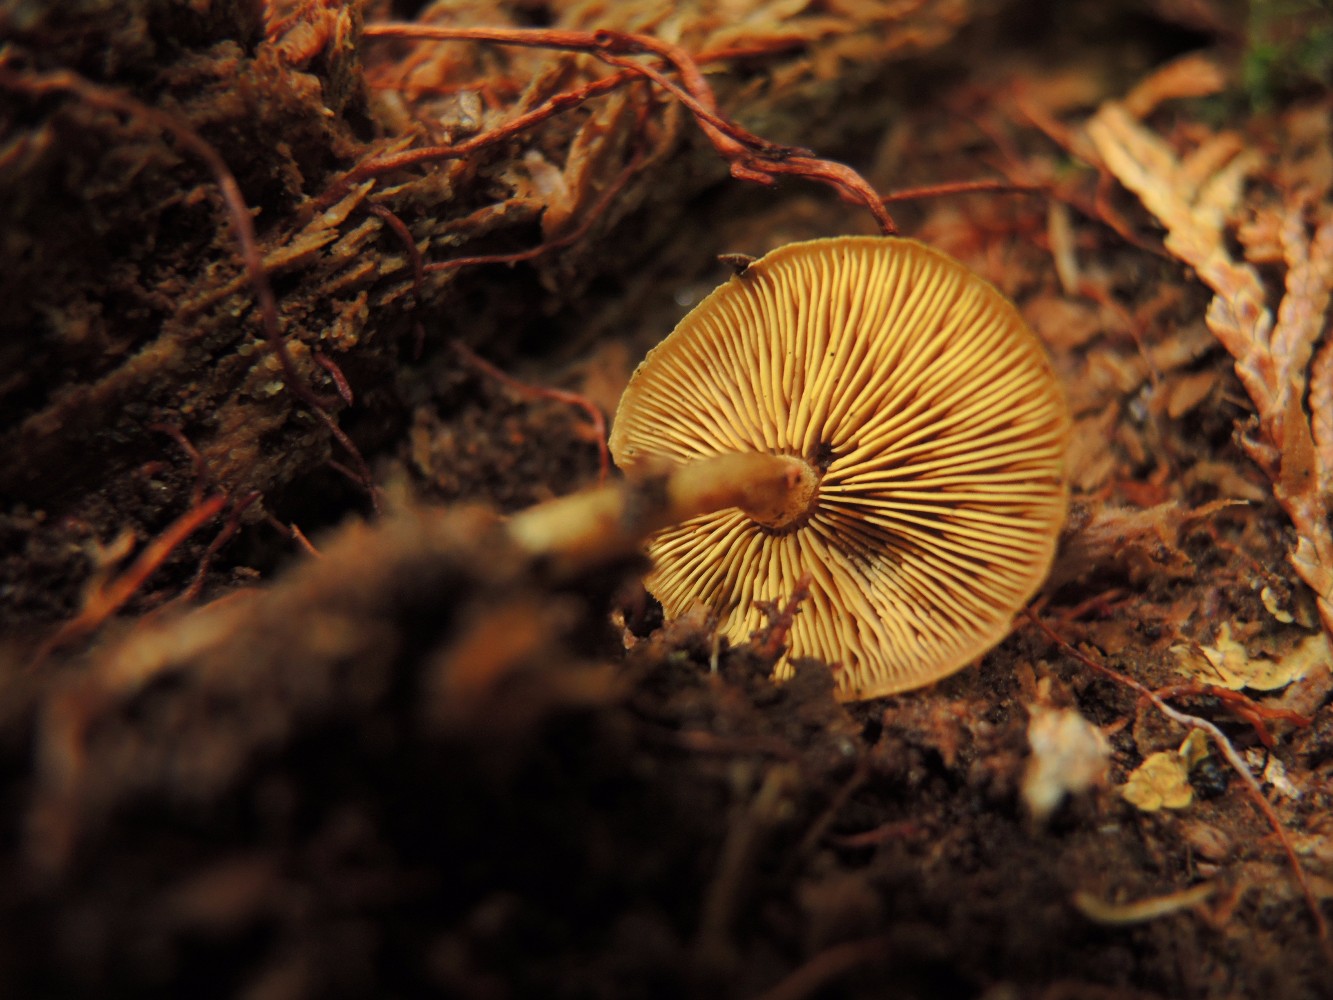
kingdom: Fungi
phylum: Basidiomycota
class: Agaricomycetes
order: Agaricales
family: Callistosporiaceae
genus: Callistosporium
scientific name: Callistosporium pinicola
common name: småsporet ravhat
